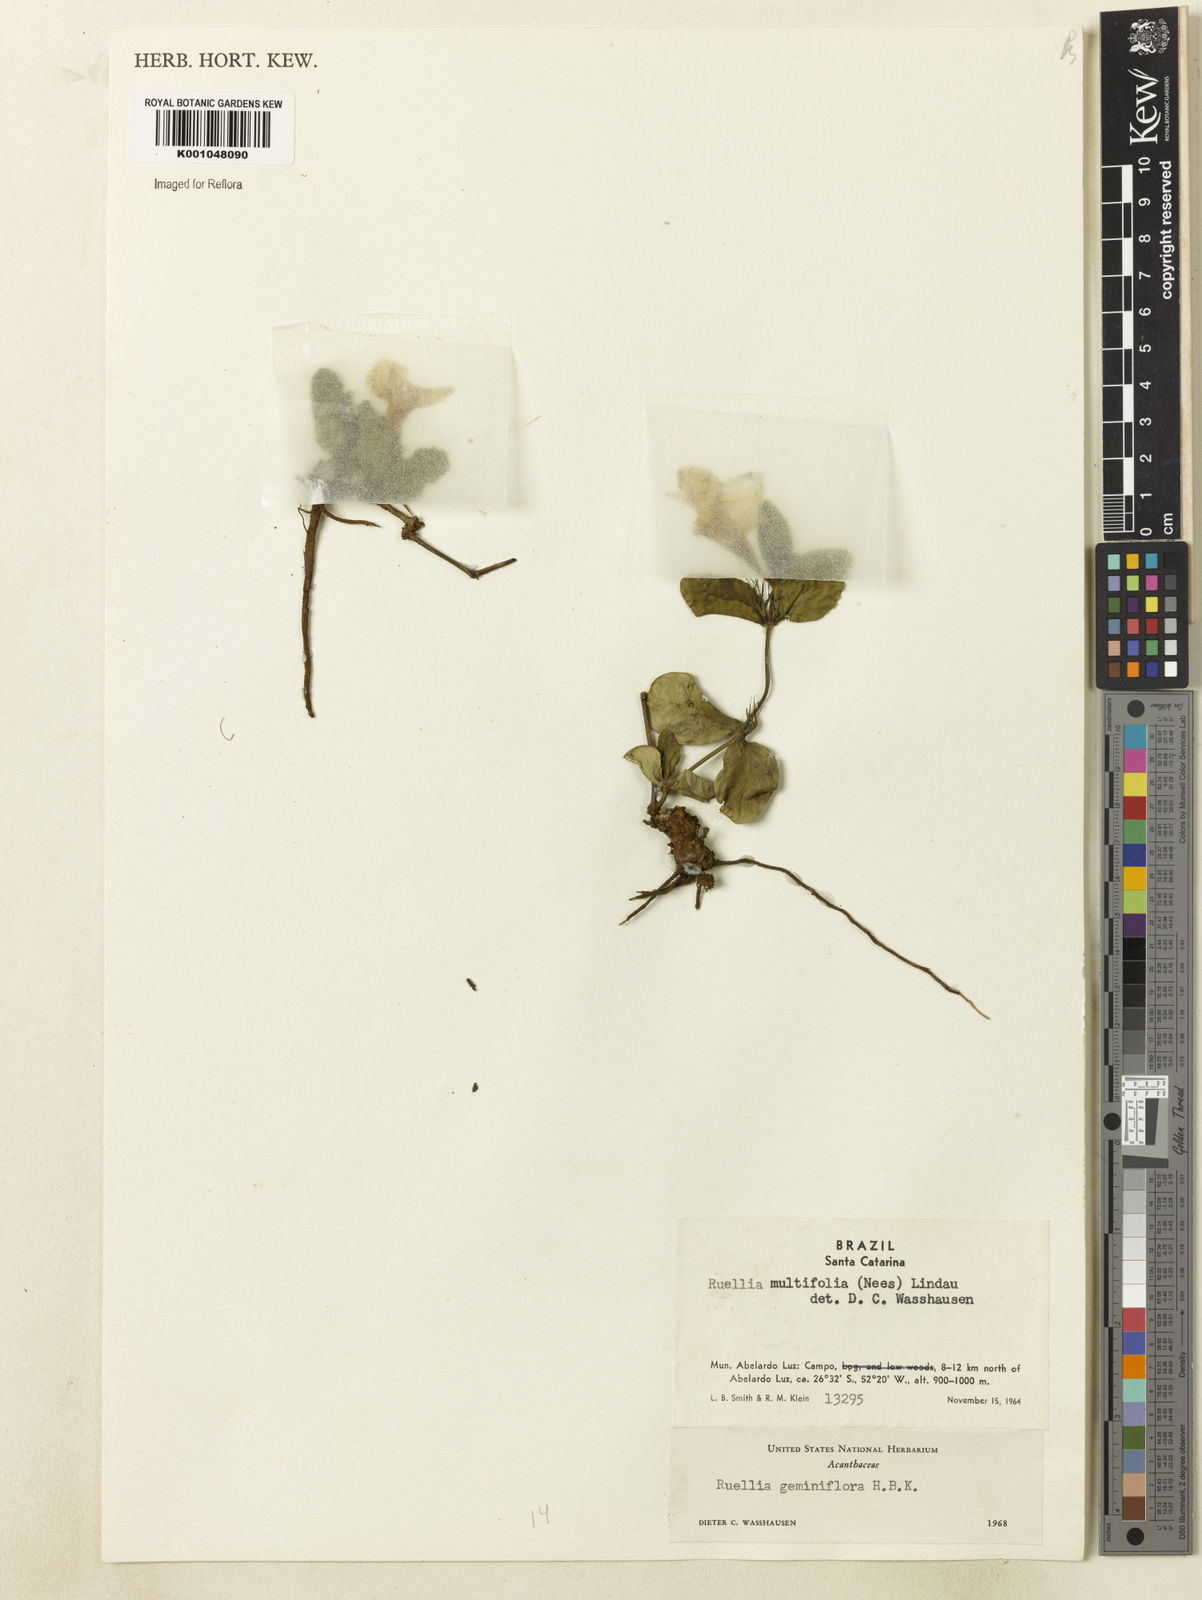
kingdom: Plantae
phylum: Tracheophyta
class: Magnoliopsida
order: Lamiales
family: Acanthaceae
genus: Ruellia
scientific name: Ruellia bulbifera
